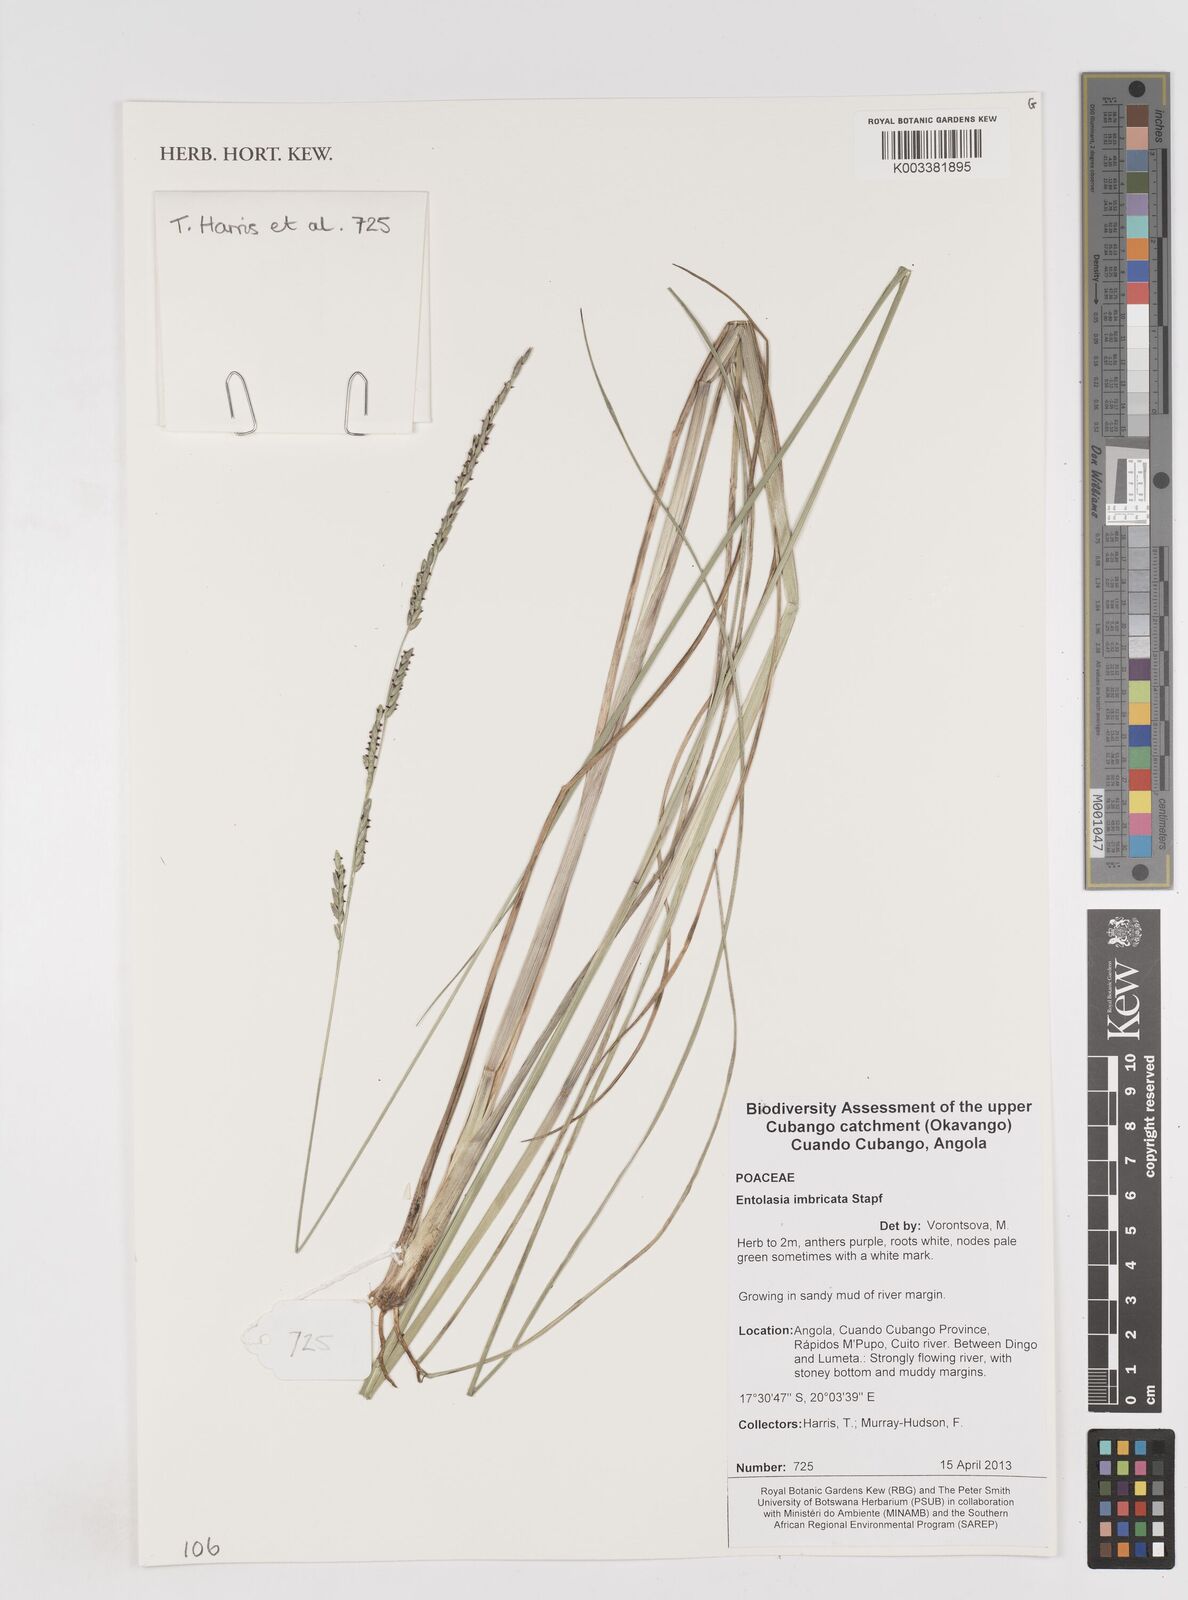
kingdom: Plantae
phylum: Tracheophyta
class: Liliopsida
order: Poales
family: Poaceae
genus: Entolasia
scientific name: Entolasia imbricata
